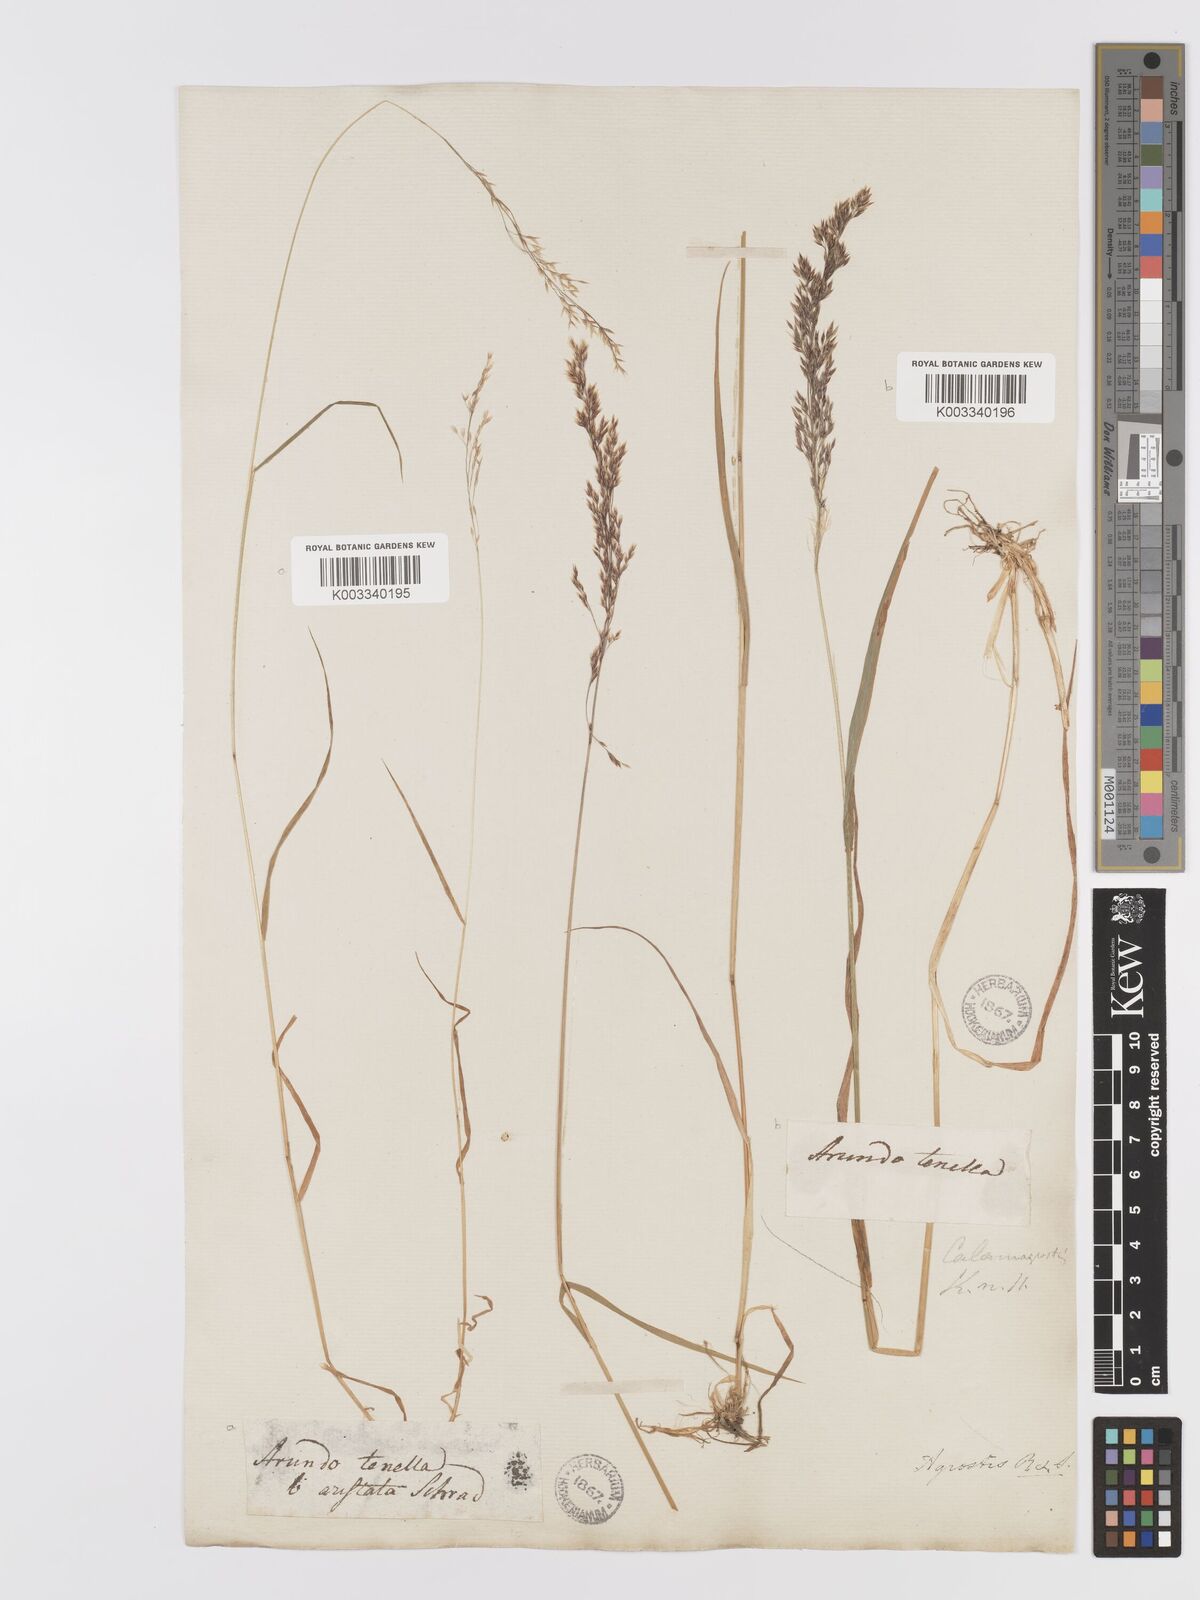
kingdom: Plantae
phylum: Tracheophyta
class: Liliopsida
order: Poales
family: Poaceae
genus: Agrostis
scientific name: Agrostis schraderiana
